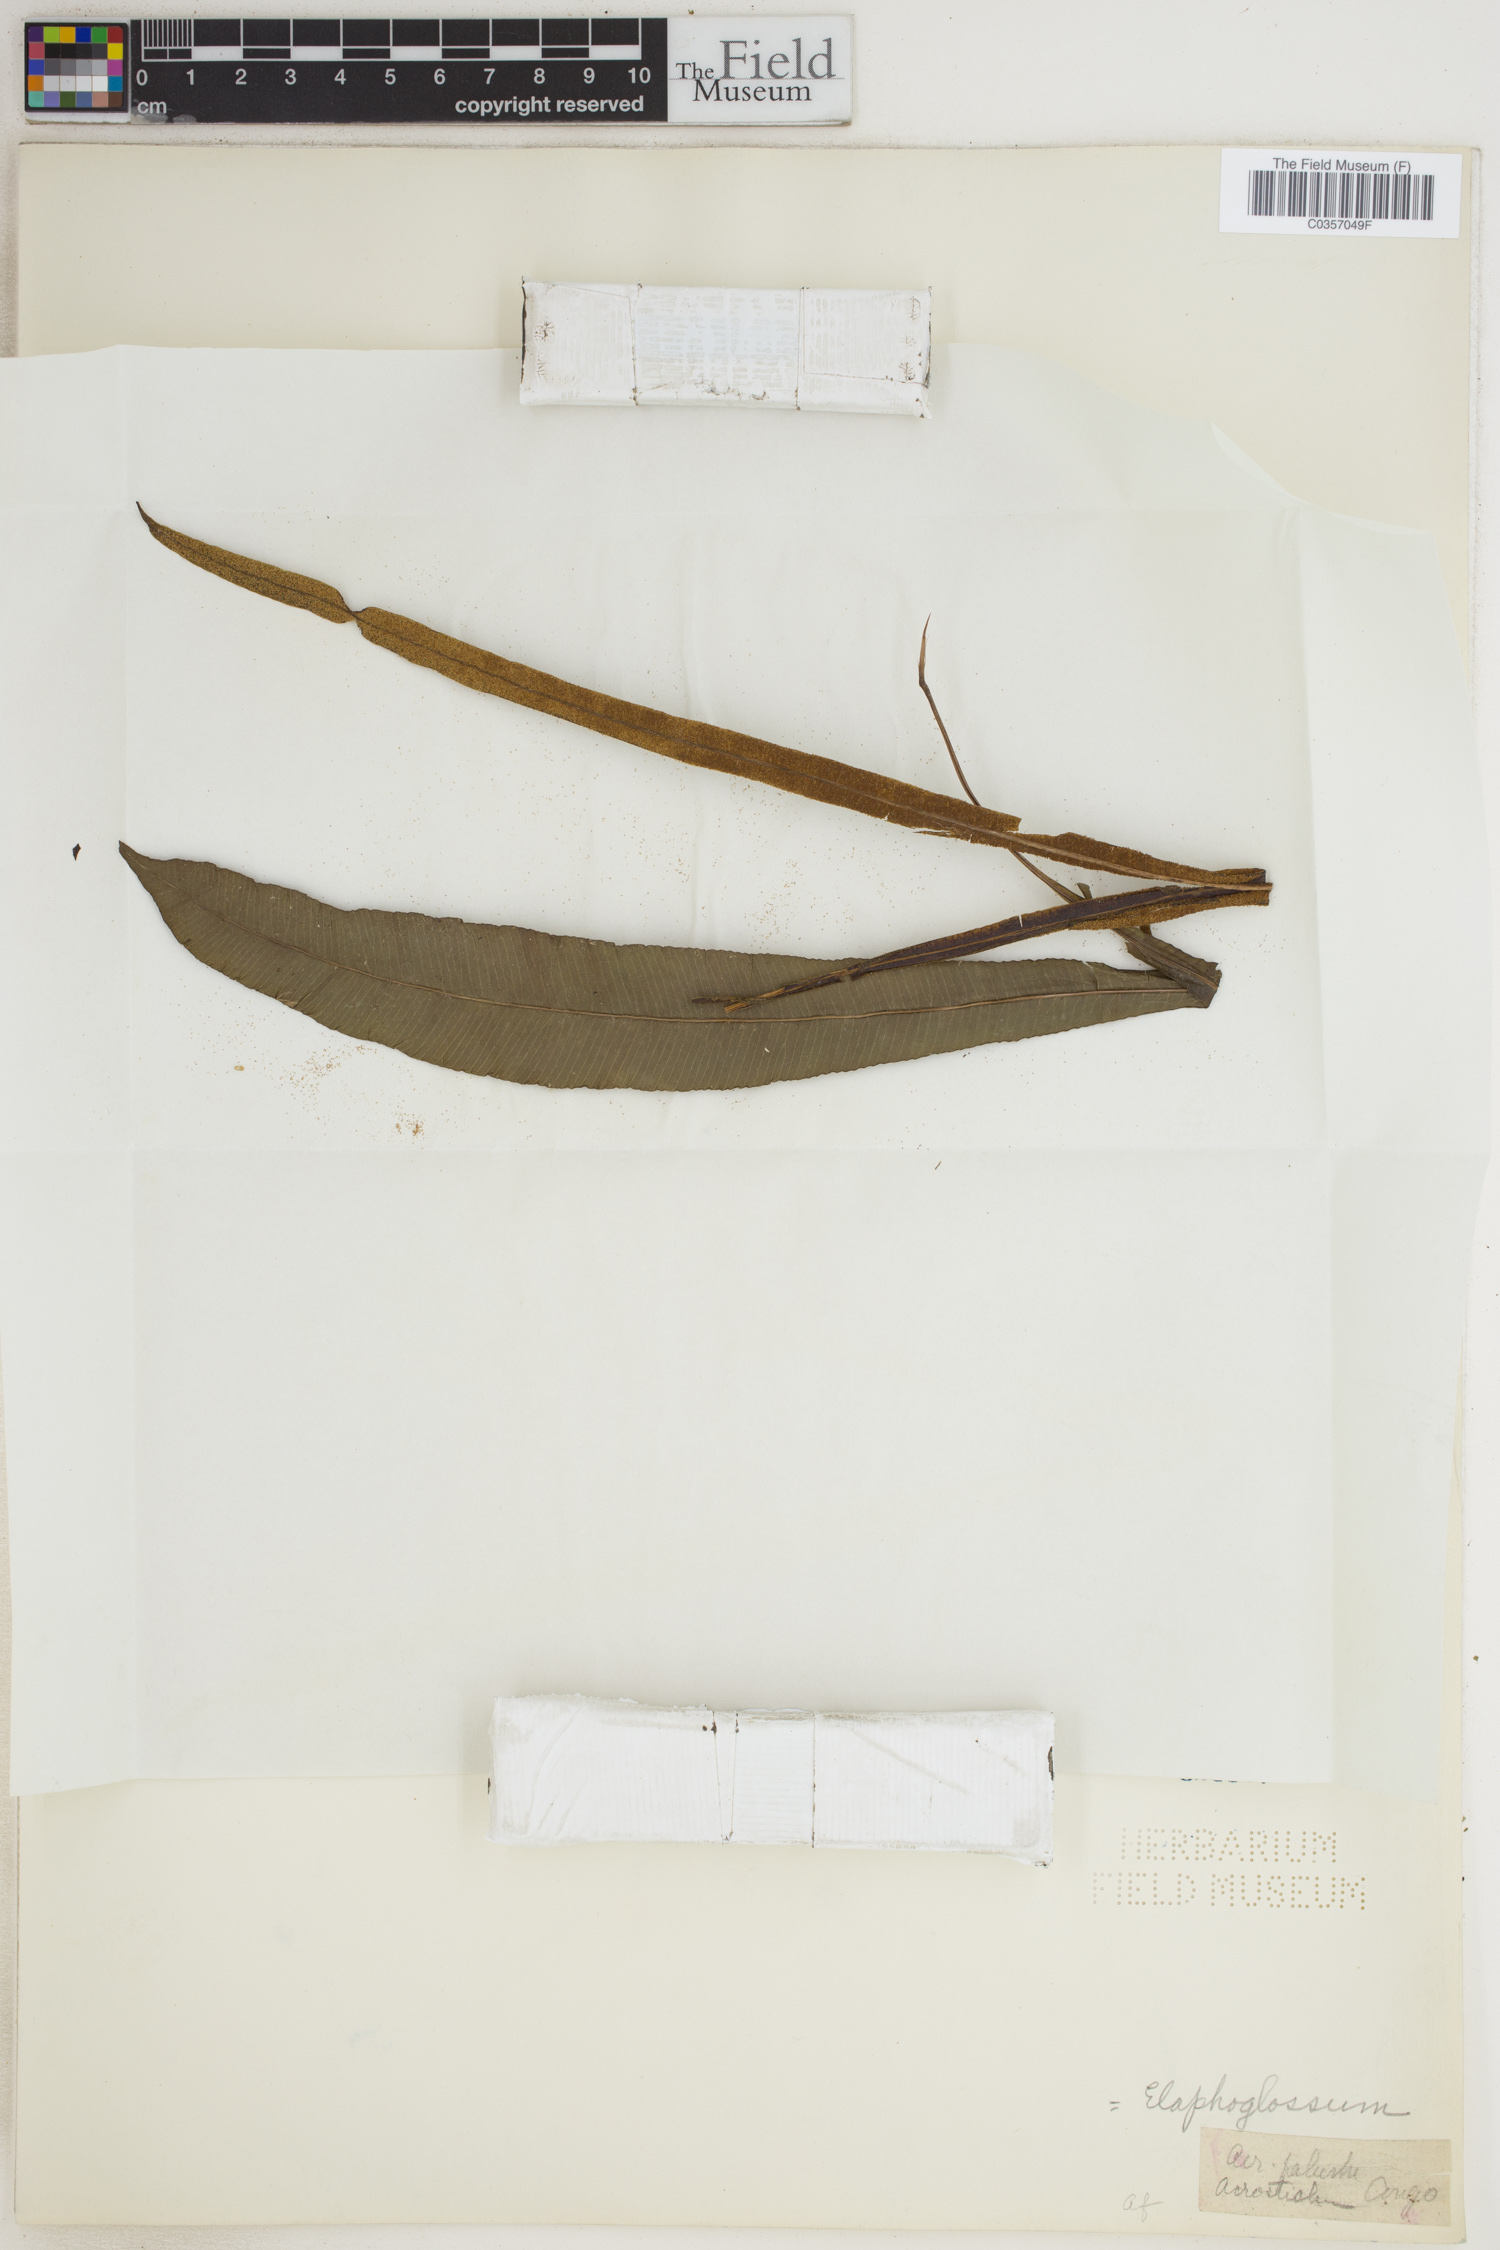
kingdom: Plantae
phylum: Tracheophyta
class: Polypodiopsida
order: Polypodiales
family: Dryopteridaceae
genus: Elaphoglossum
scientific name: Elaphoglossum
